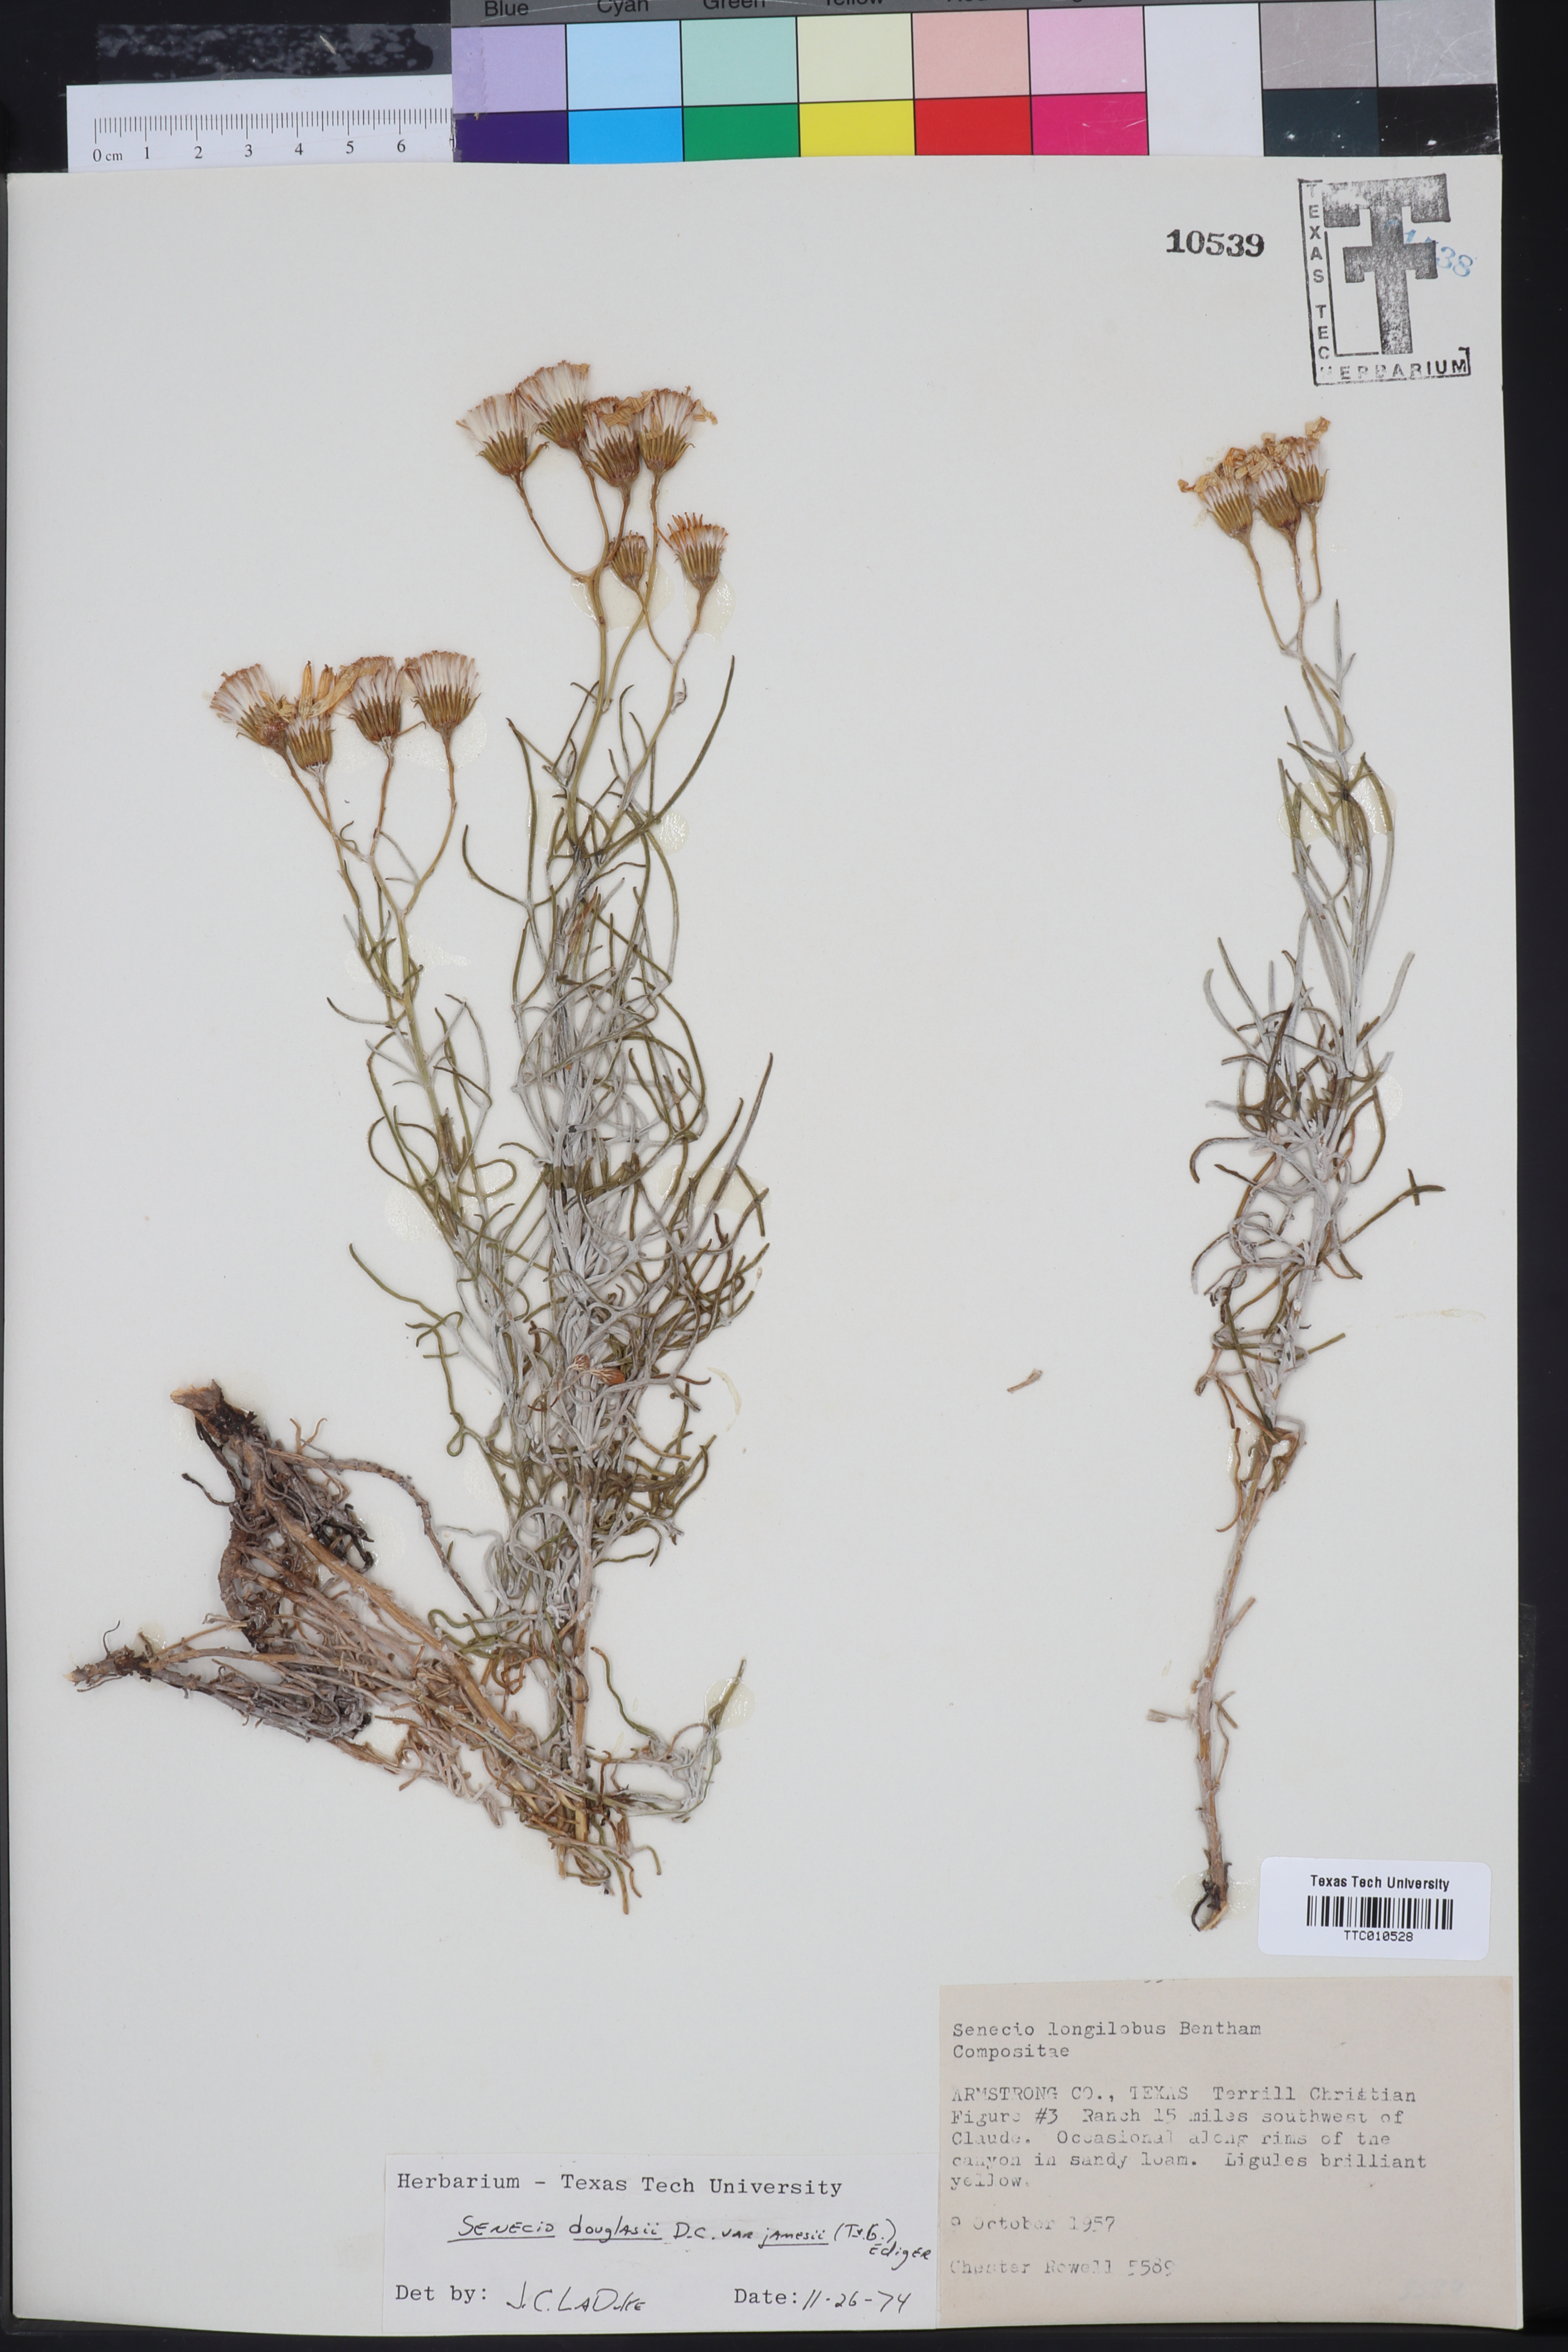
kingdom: Plantae
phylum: Tracheophyta
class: Magnoliopsida
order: Asterales
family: Asteraceae
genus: Senecio
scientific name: Senecio flaccidus
